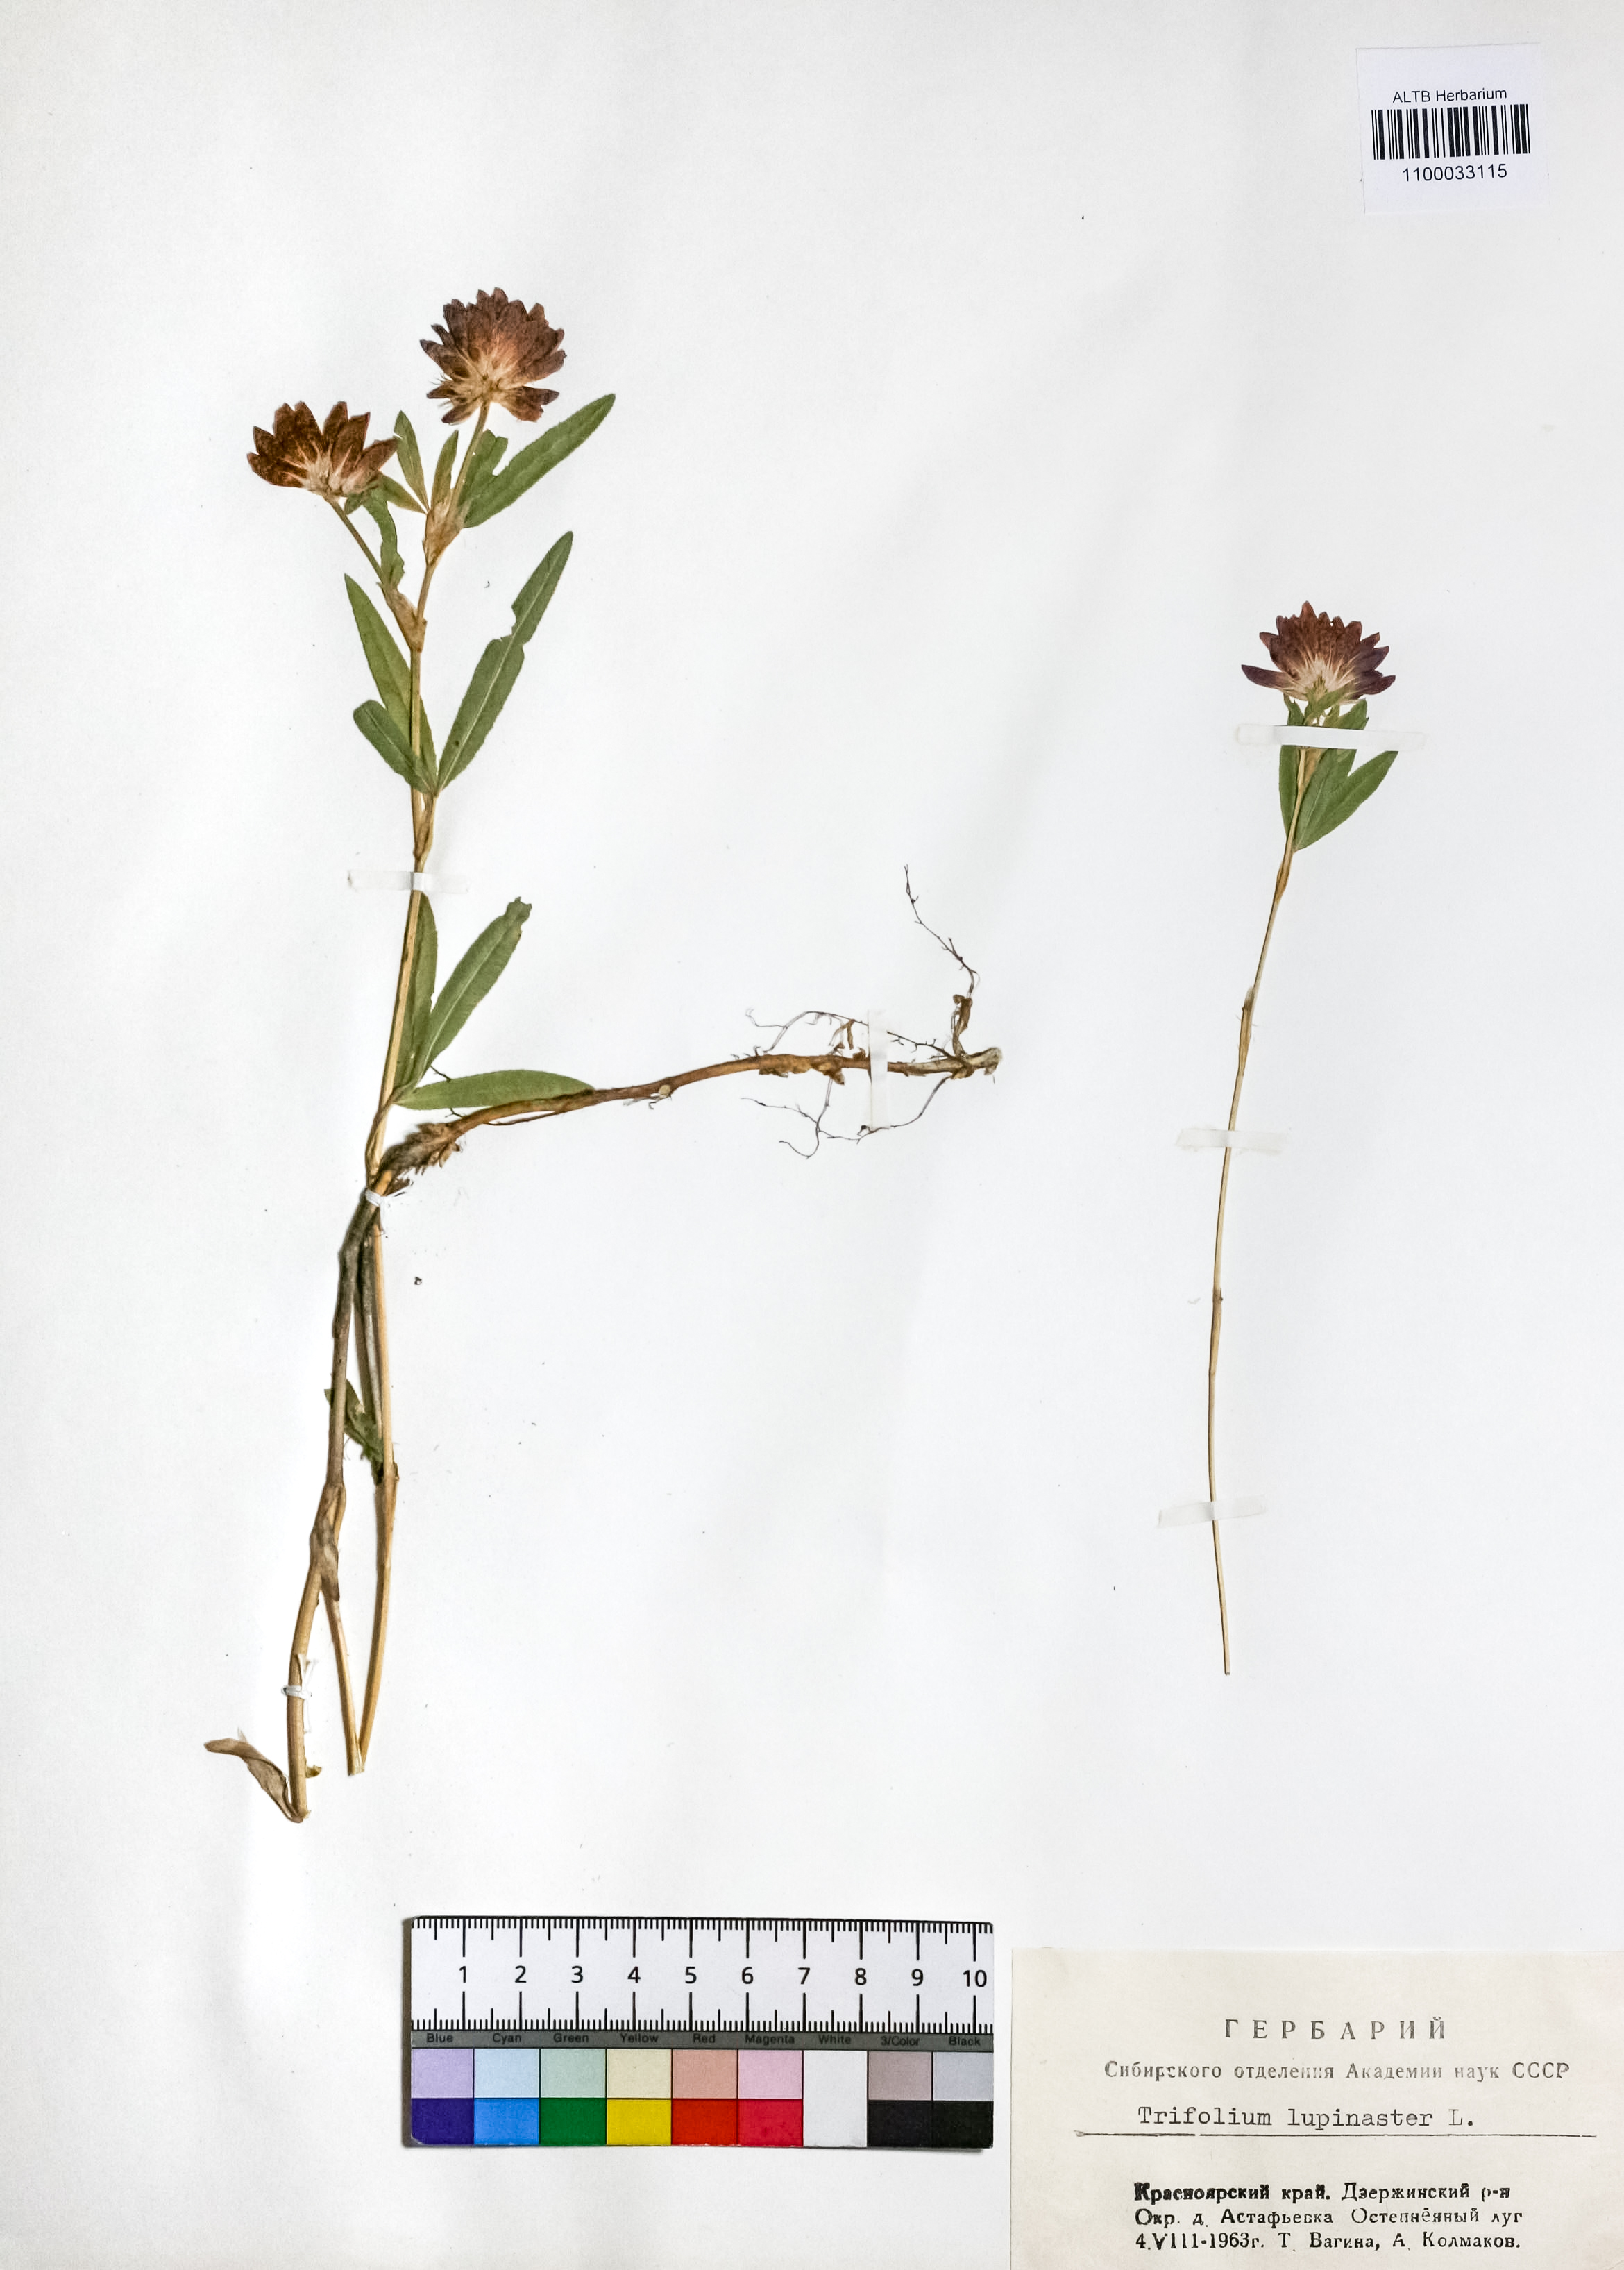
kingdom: Plantae
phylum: Tracheophyta
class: Magnoliopsida
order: Fabales
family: Fabaceae
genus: Trifolium
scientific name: Trifolium lupinaster
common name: Lupine clover
